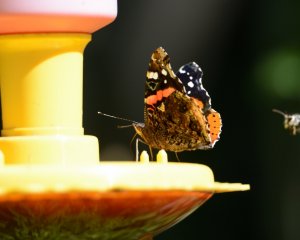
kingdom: Animalia
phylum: Arthropoda
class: Insecta
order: Lepidoptera
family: Nymphalidae
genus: Vanessa
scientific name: Vanessa atalanta
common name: Red Admiral
